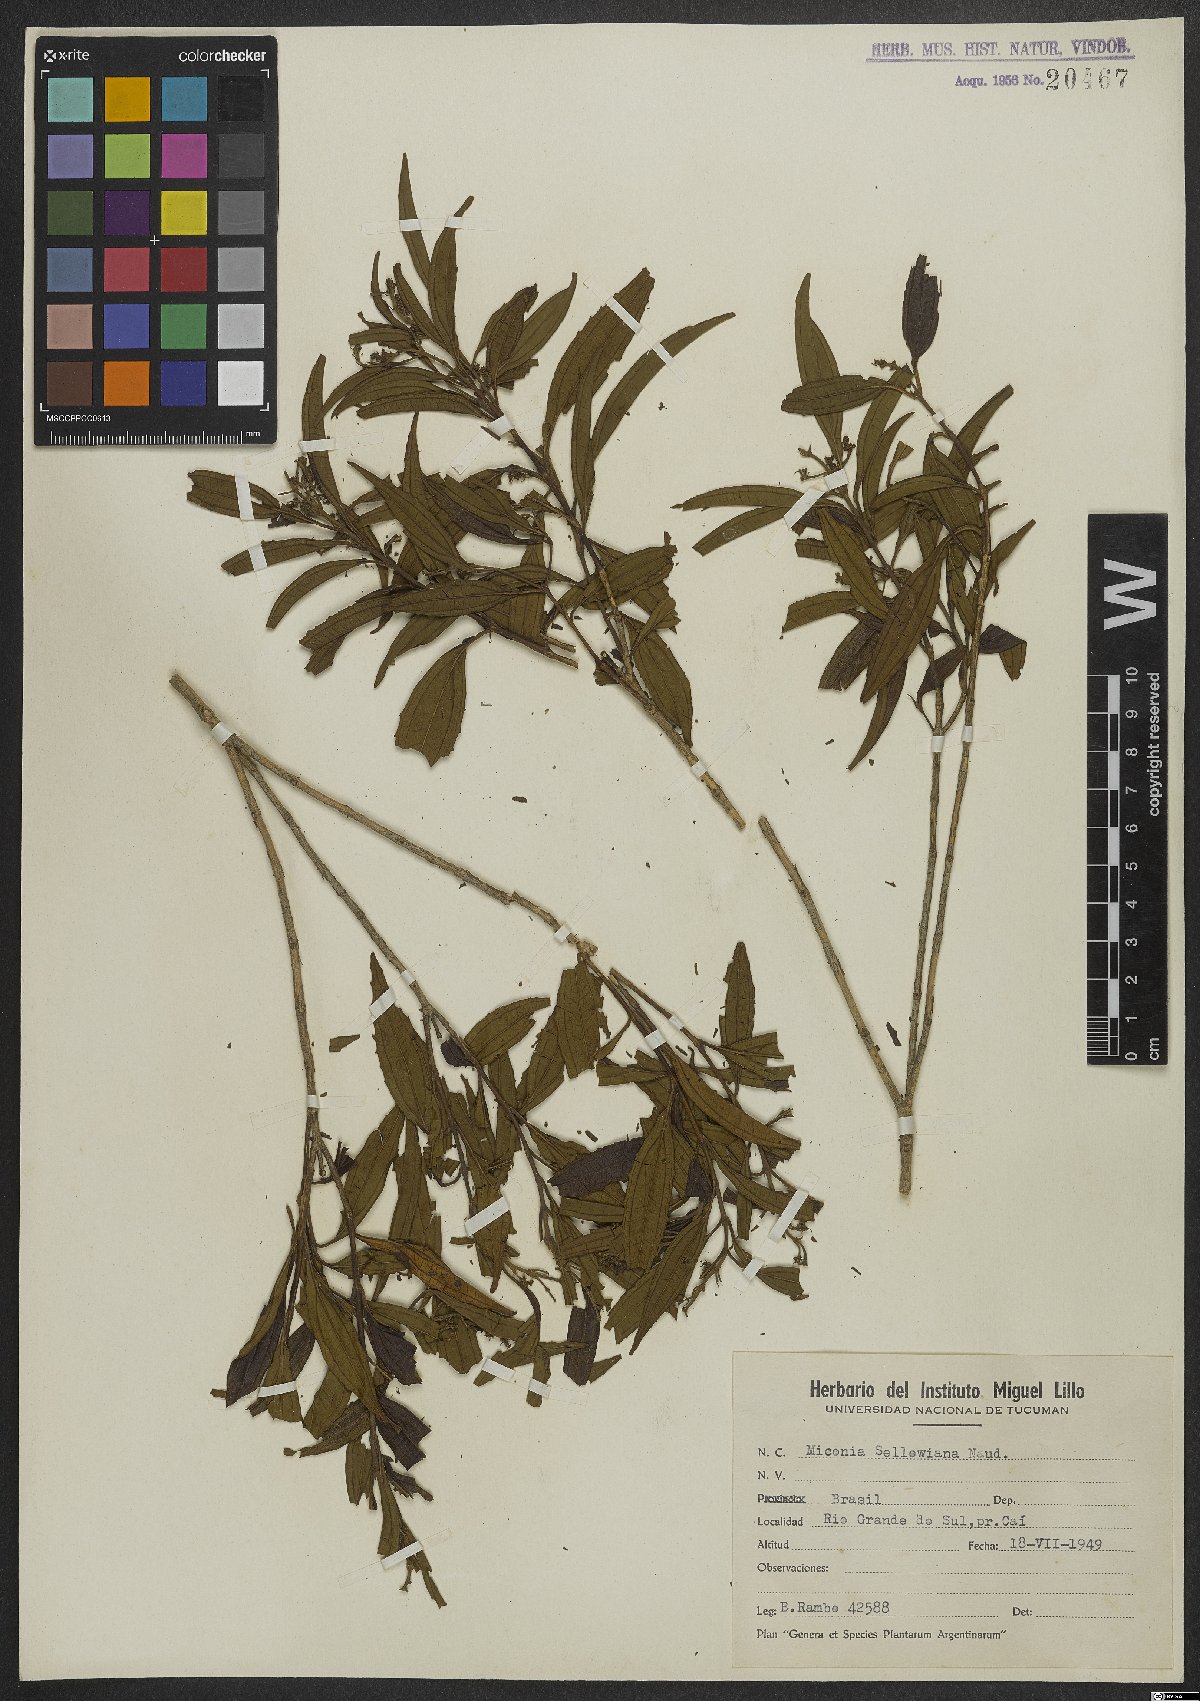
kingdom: Plantae
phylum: Tracheophyta
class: Magnoliopsida
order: Myrtales
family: Melastomataceae
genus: Miconia
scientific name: Miconia sellowiana
